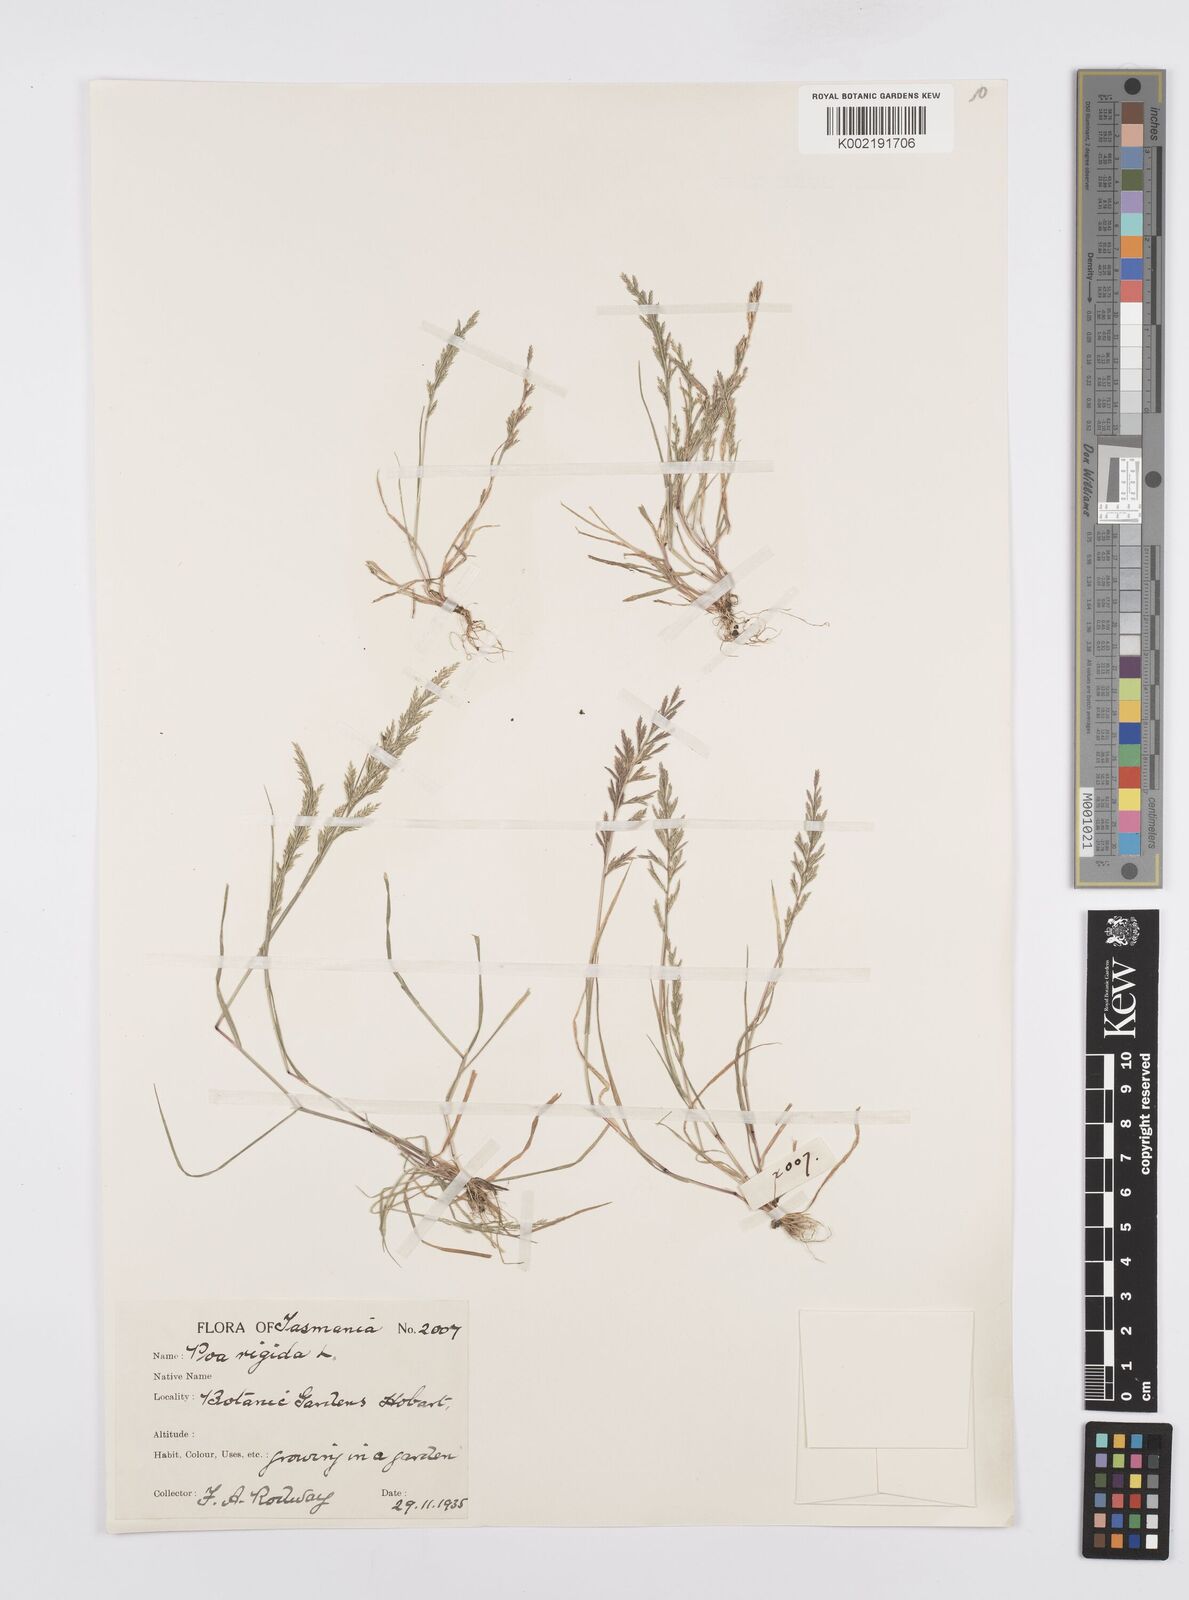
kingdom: Plantae
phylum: Tracheophyta
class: Liliopsida
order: Poales
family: Poaceae
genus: Catapodium
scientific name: Catapodium rigidum
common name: Fern-grass
